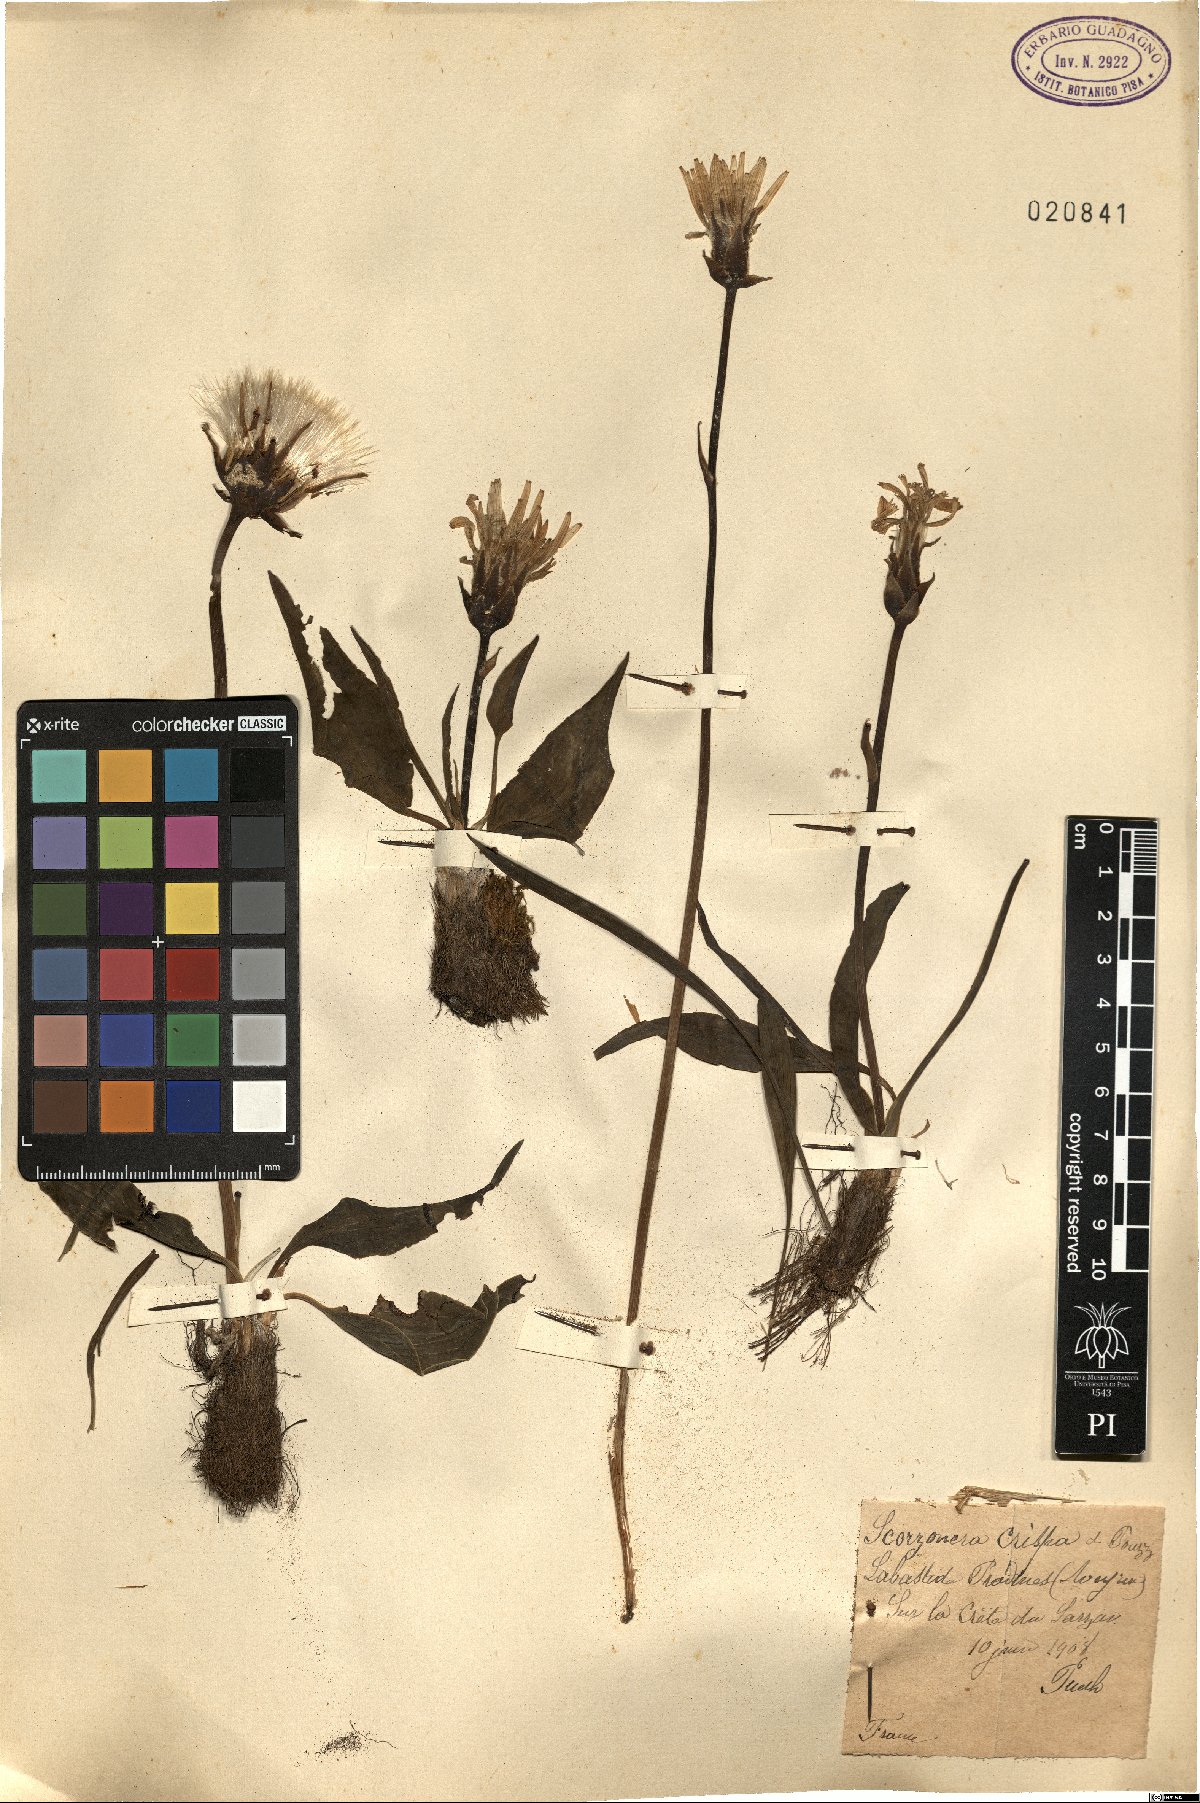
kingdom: Plantae
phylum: Tracheophyta
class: Magnoliopsida
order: Asterales
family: Asteraceae
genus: Takhtajaniantha
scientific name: Takhtajaniantha crispa
